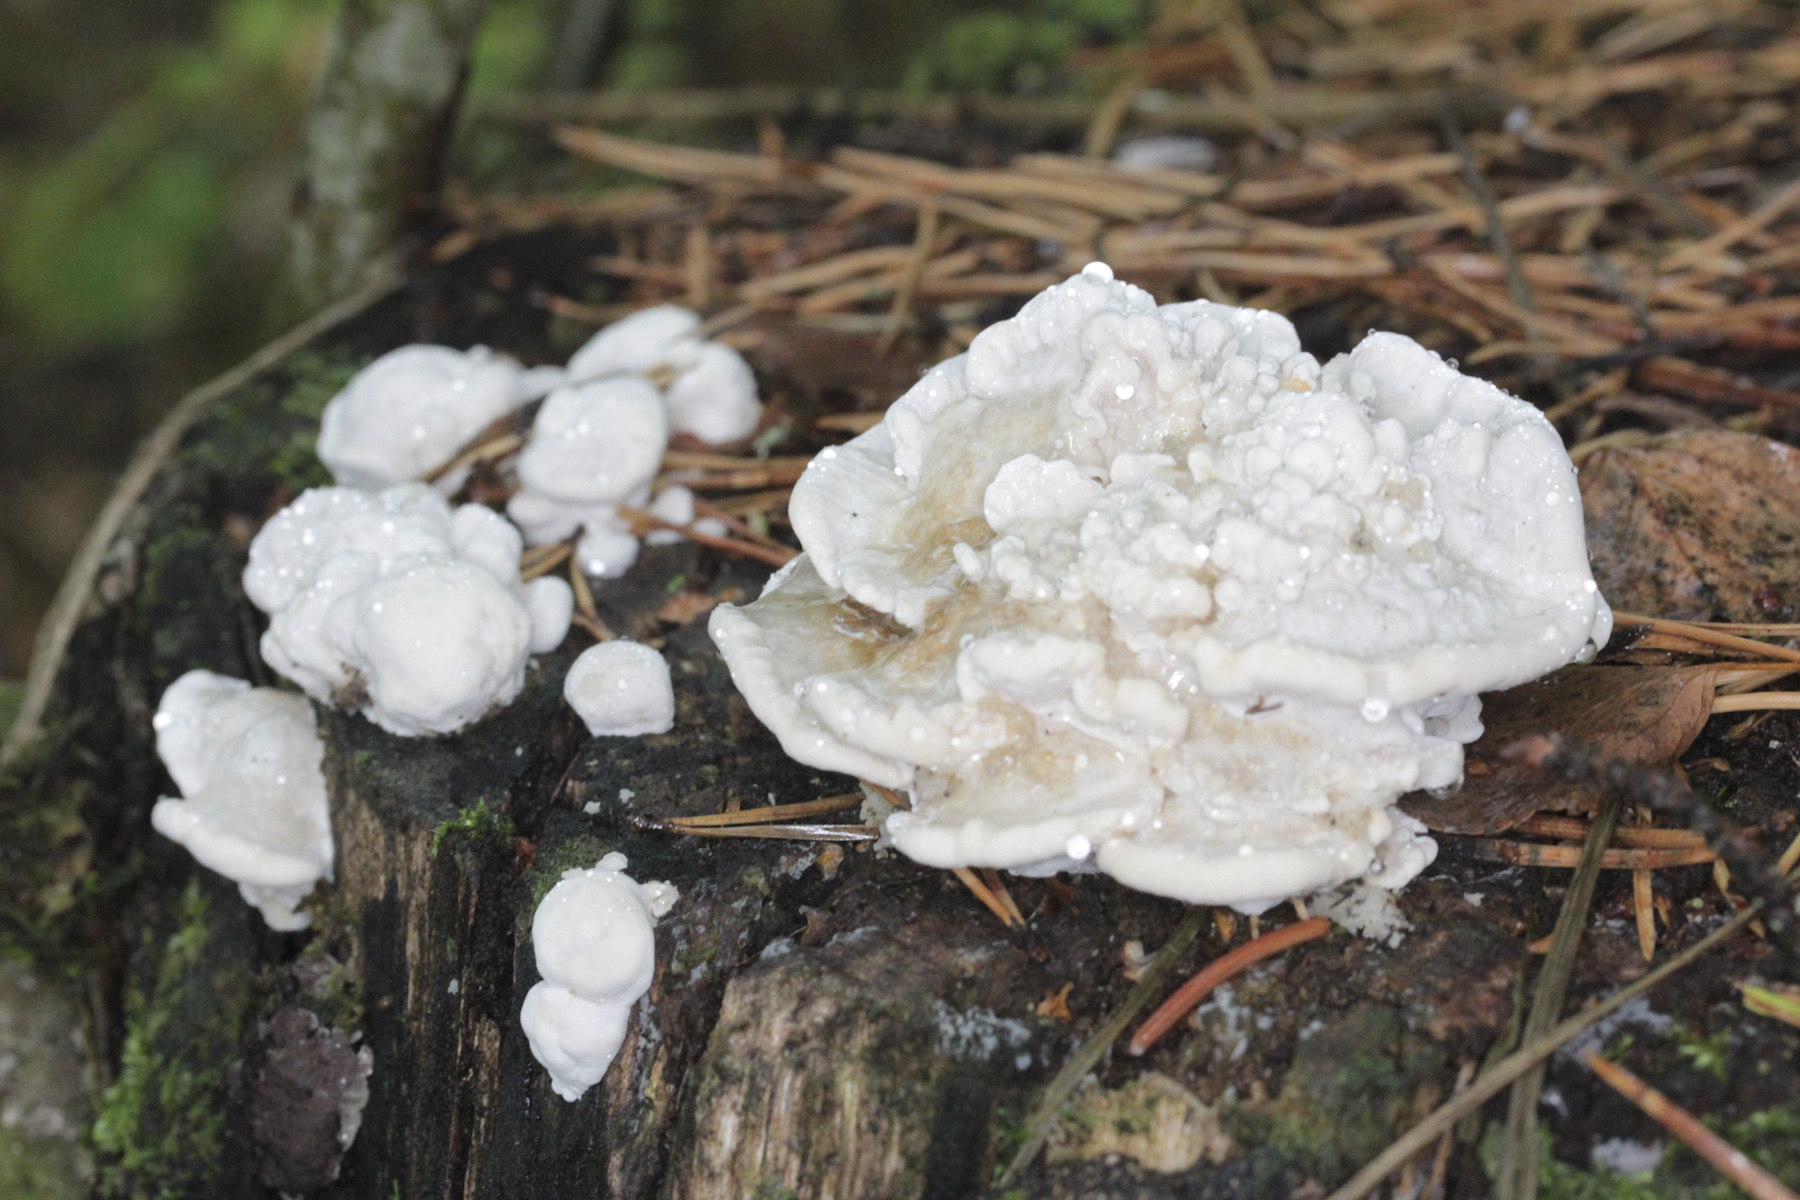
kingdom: Fungi
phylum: Basidiomycota
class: Agaricomycetes
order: Polyporales
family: Polyporaceae
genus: Trametes
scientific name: Trametes ochracea
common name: Ochre bracket
